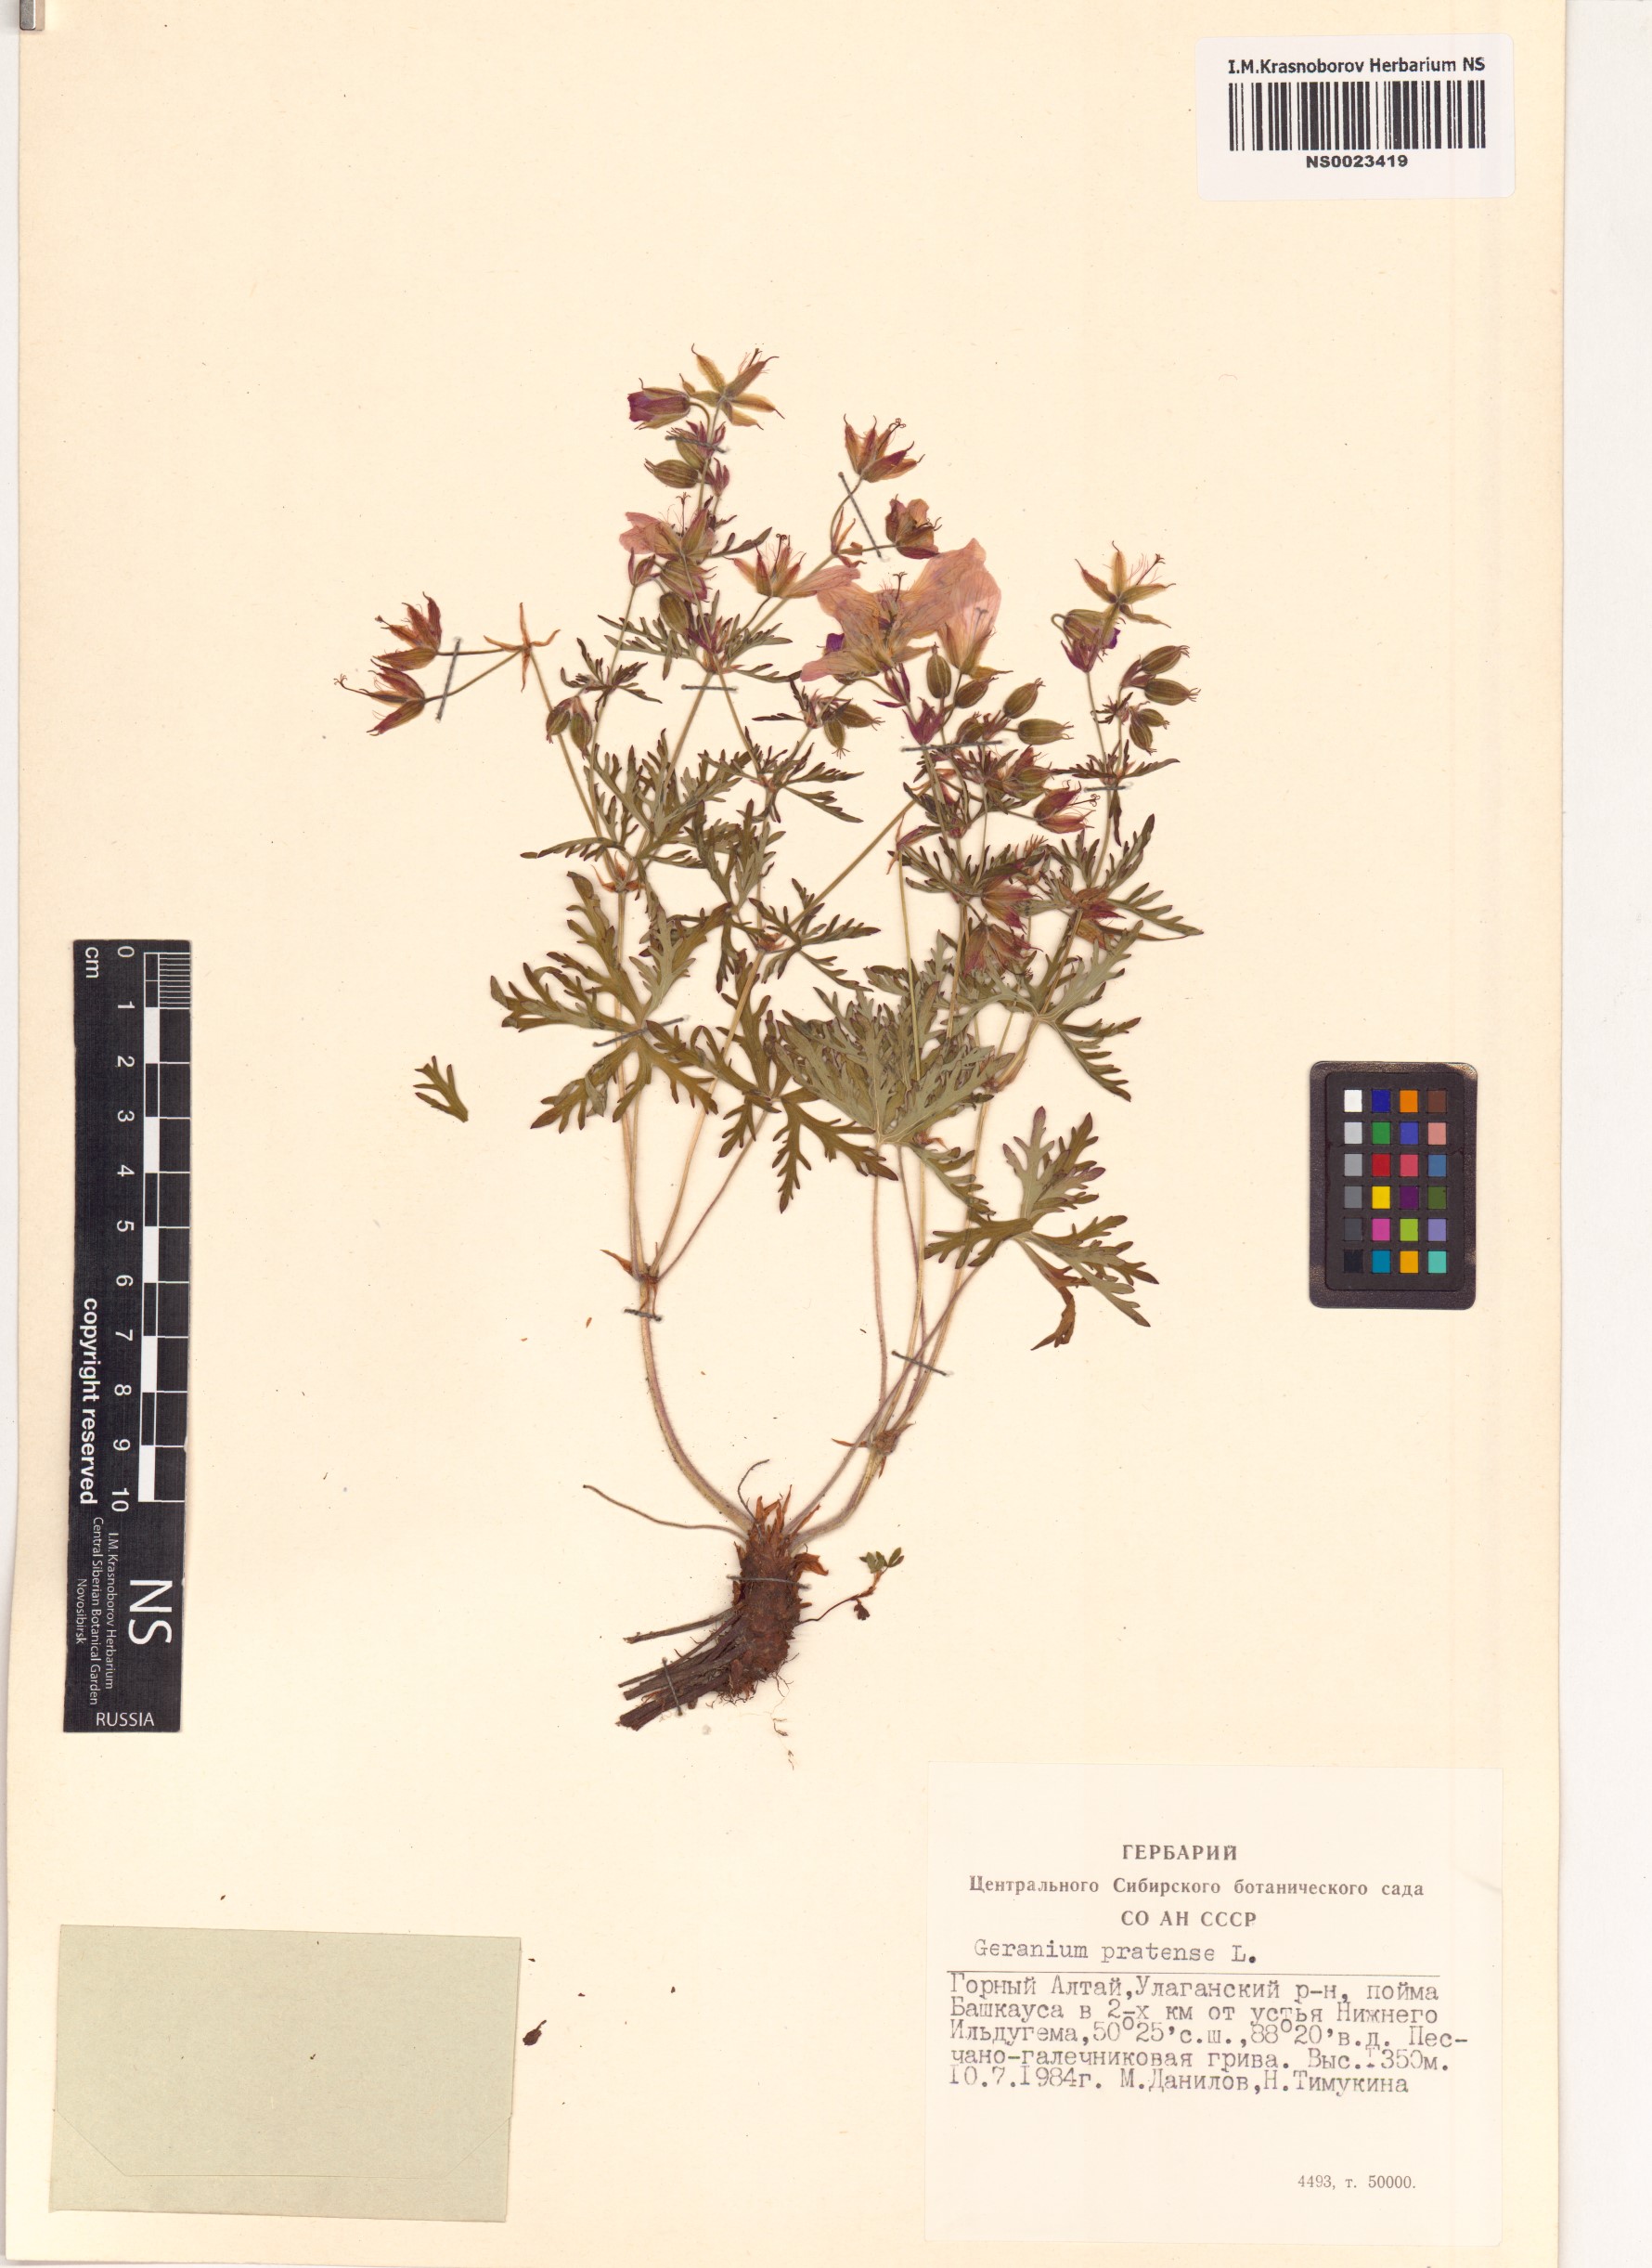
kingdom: Plantae
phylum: Tracheophyta
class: Magnoliopsida
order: Geraniales
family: Geraniaceae
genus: Geranium
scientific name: Geranium pratense
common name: Meadow crane's-bill
